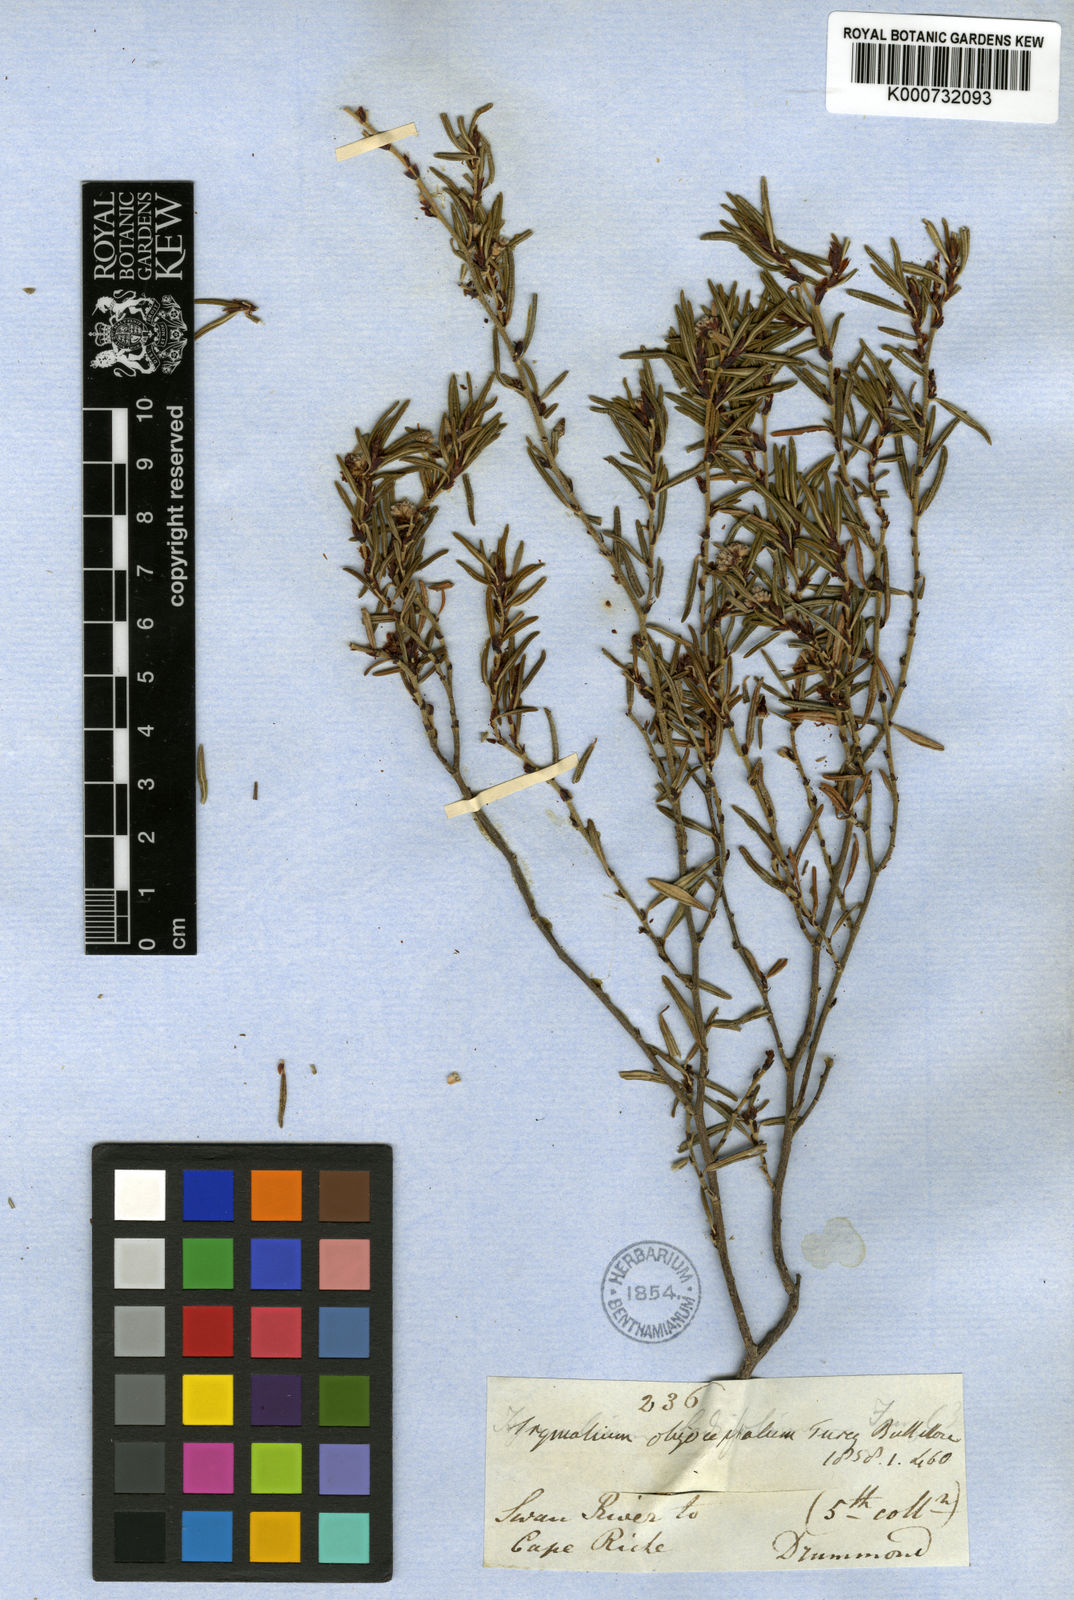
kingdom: Plantae
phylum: Tracheophyta
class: Magnoliopsida
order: Rosales
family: Rhamnaceae
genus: Spyridium
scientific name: Spyridium oligocephalum
